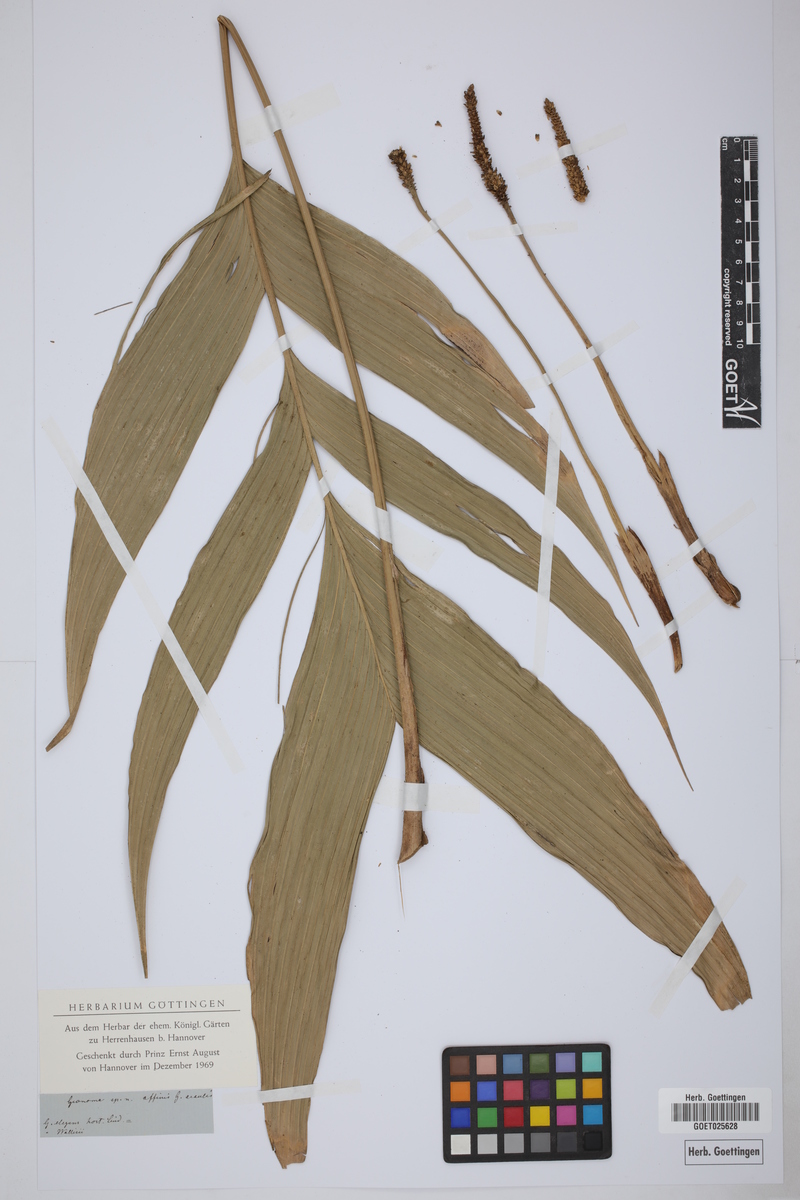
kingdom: Plantae
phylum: Tracheophyta
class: Liliopsida
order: Arecales
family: Arecaceae
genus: Geonoma
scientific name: Geonoma
